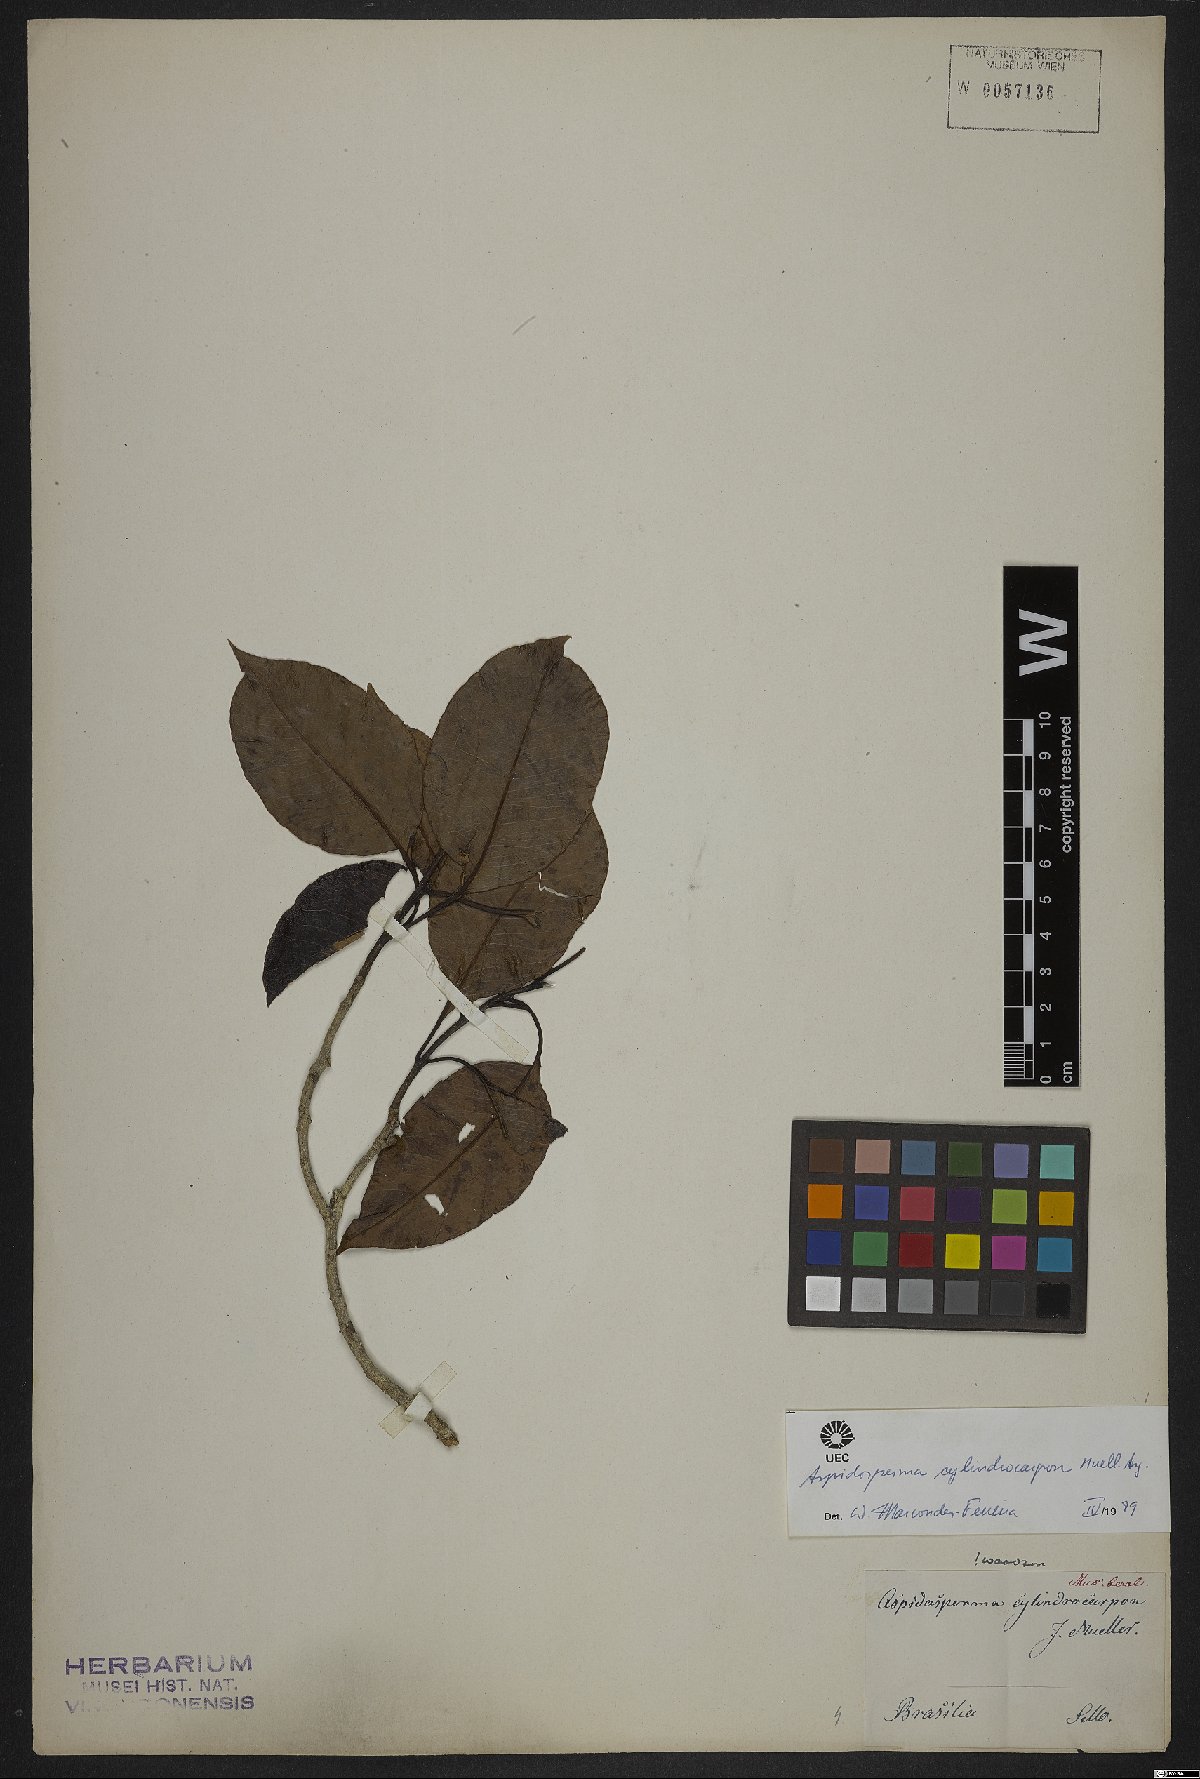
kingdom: Plantae
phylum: Tracheophyta
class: Magnoliopsida
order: Gentianales
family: Apocynaceae
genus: Aspidosperma
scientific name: Aspidosperma cylindrocarpon
